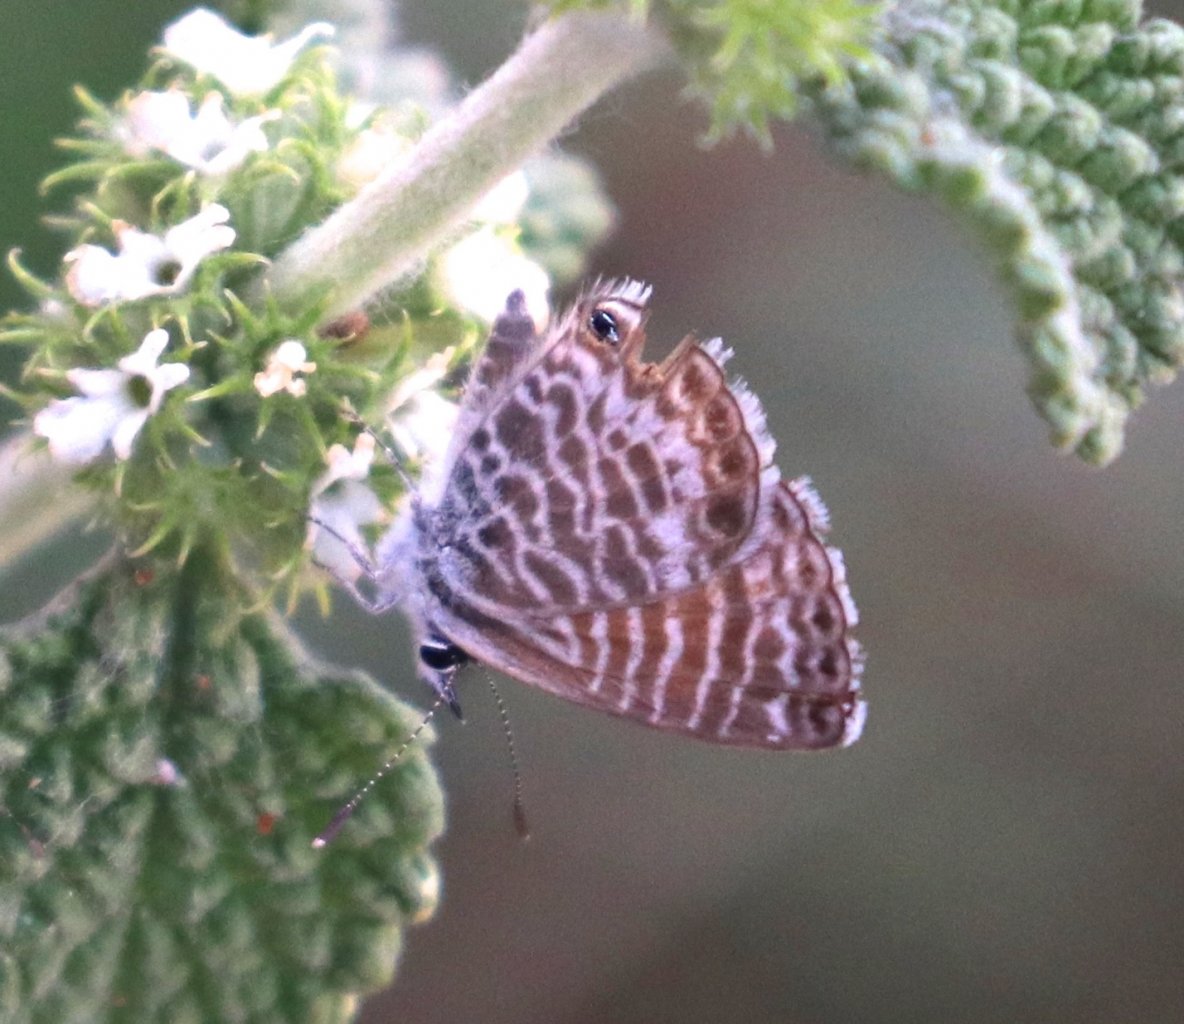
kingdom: Animalia
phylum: Arthropoda
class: Insecta
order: Lepidoptera
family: Lycaenidae
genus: Leptotes
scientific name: Leptotes marina
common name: Marine Blue
